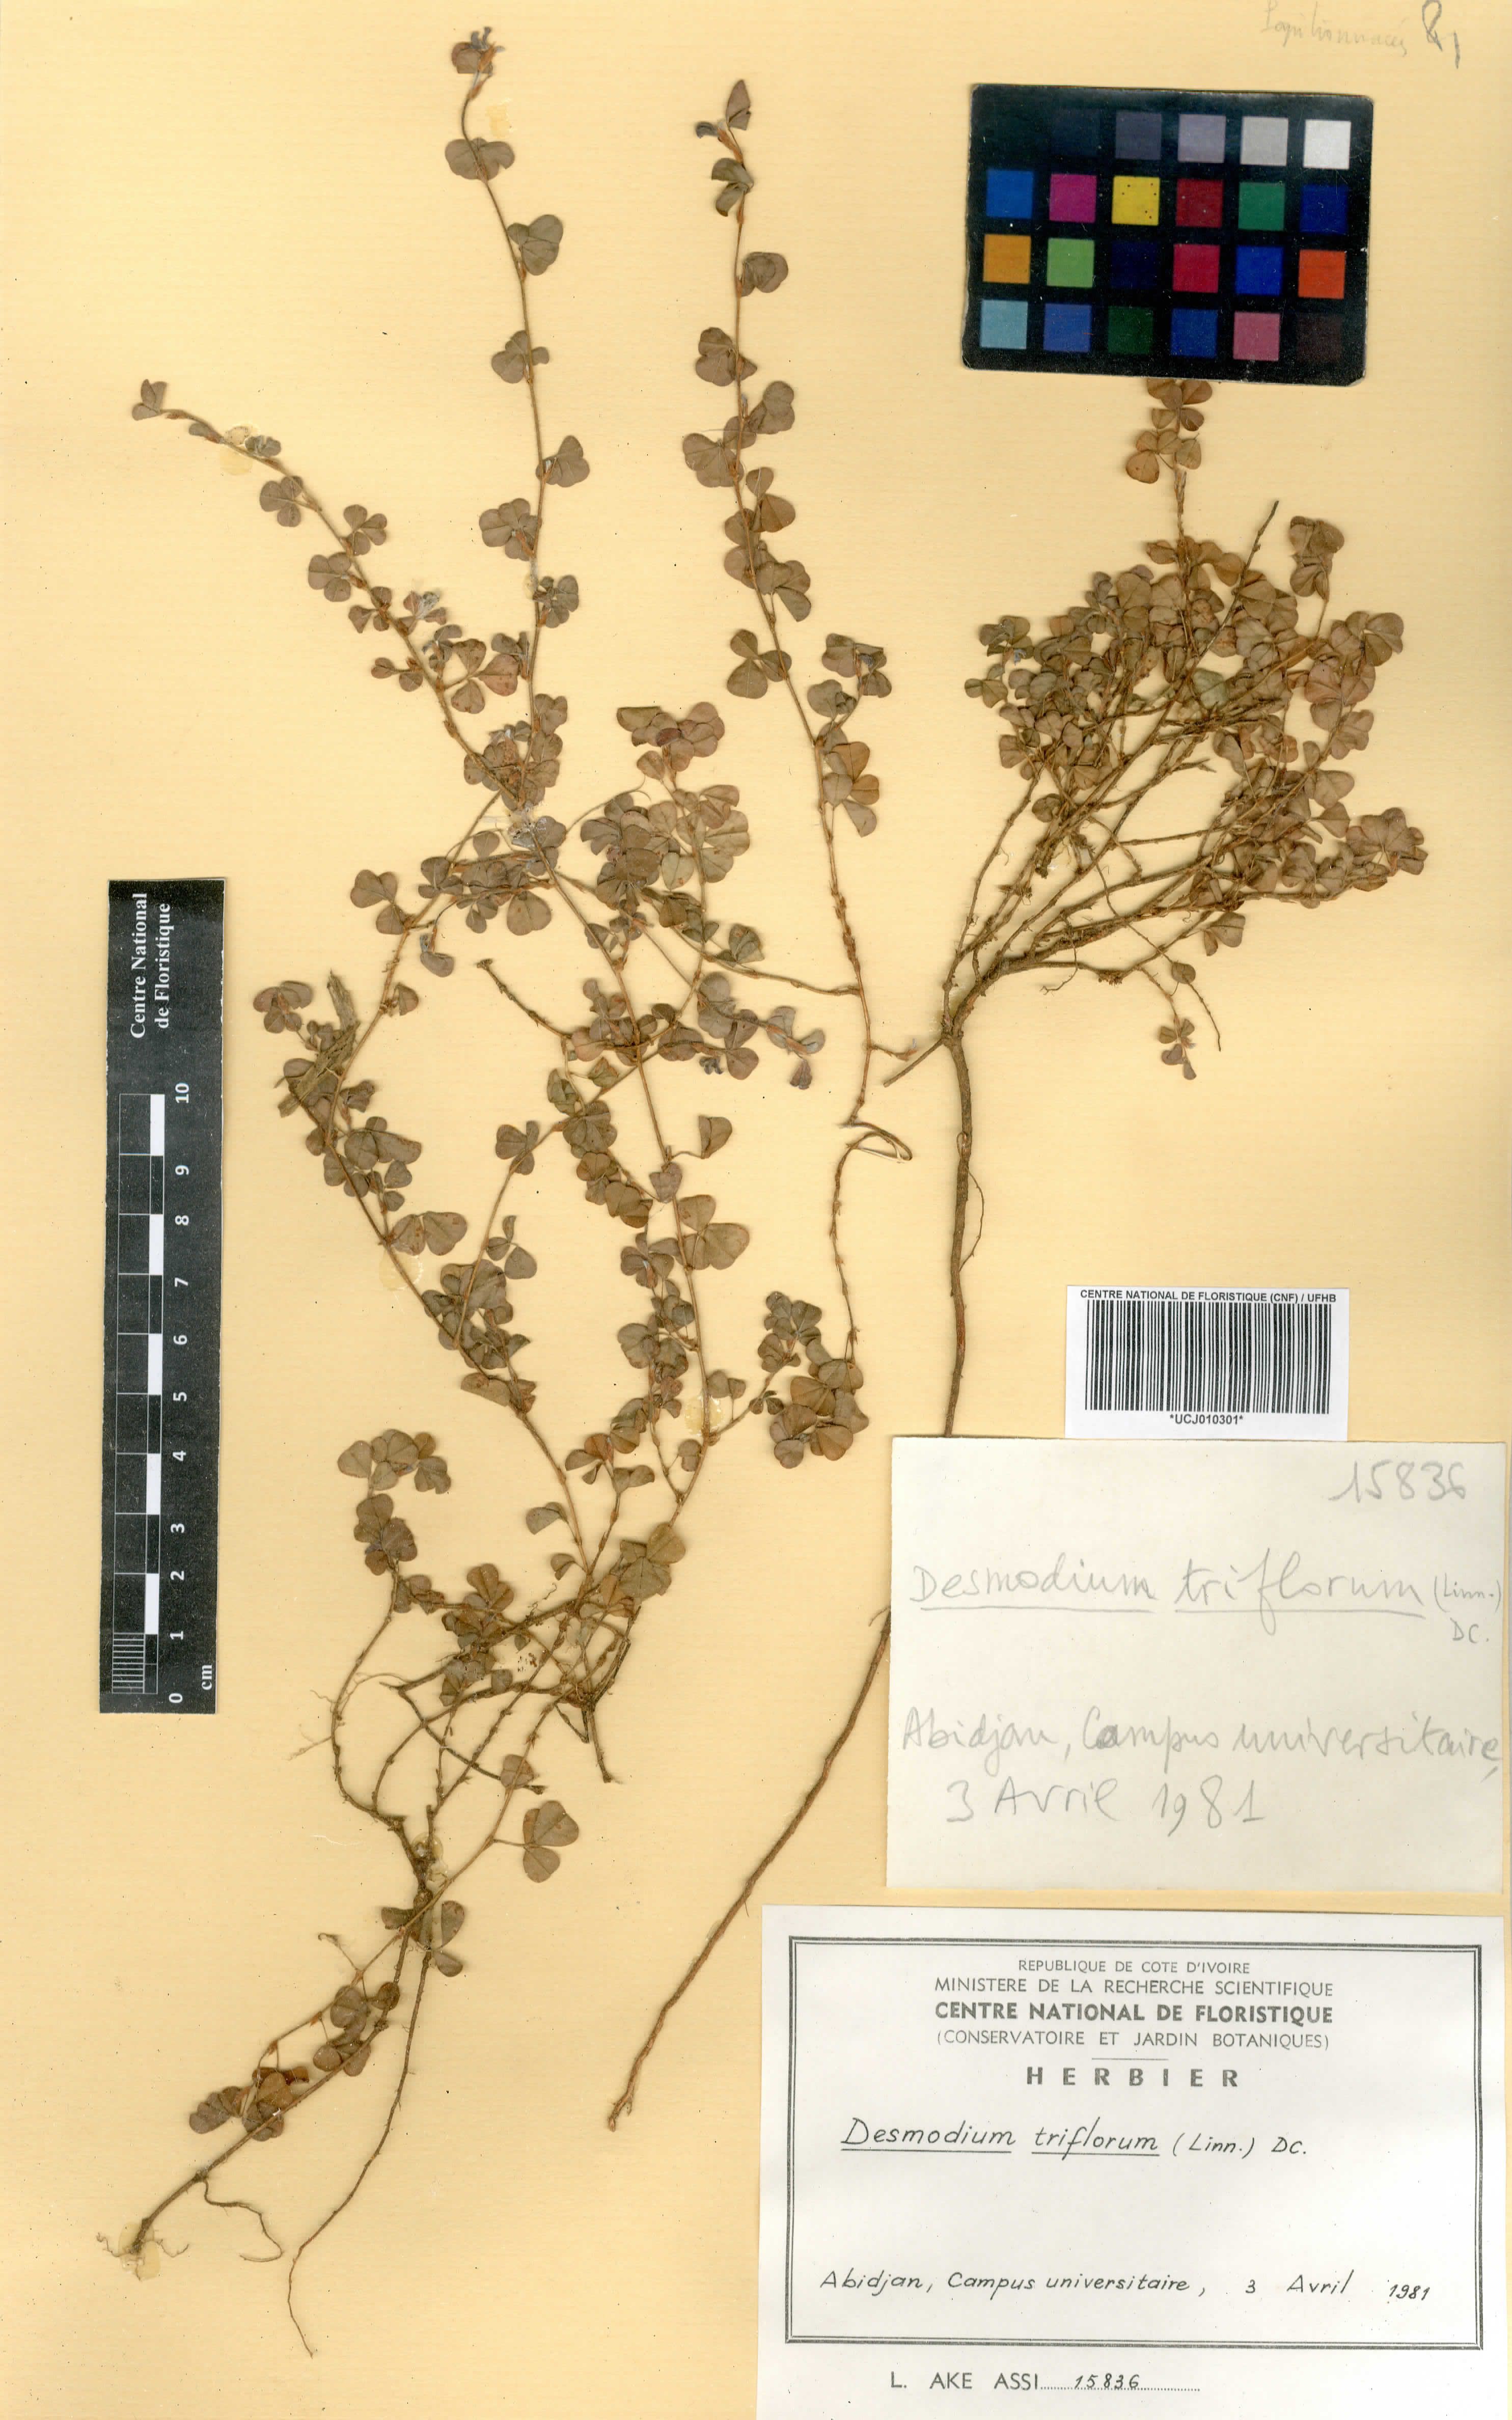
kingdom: Plantae
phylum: Tracheophyta
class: Magnoliopsida
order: Fabales
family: Fabaceae
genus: Grona
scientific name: Grona triflora
